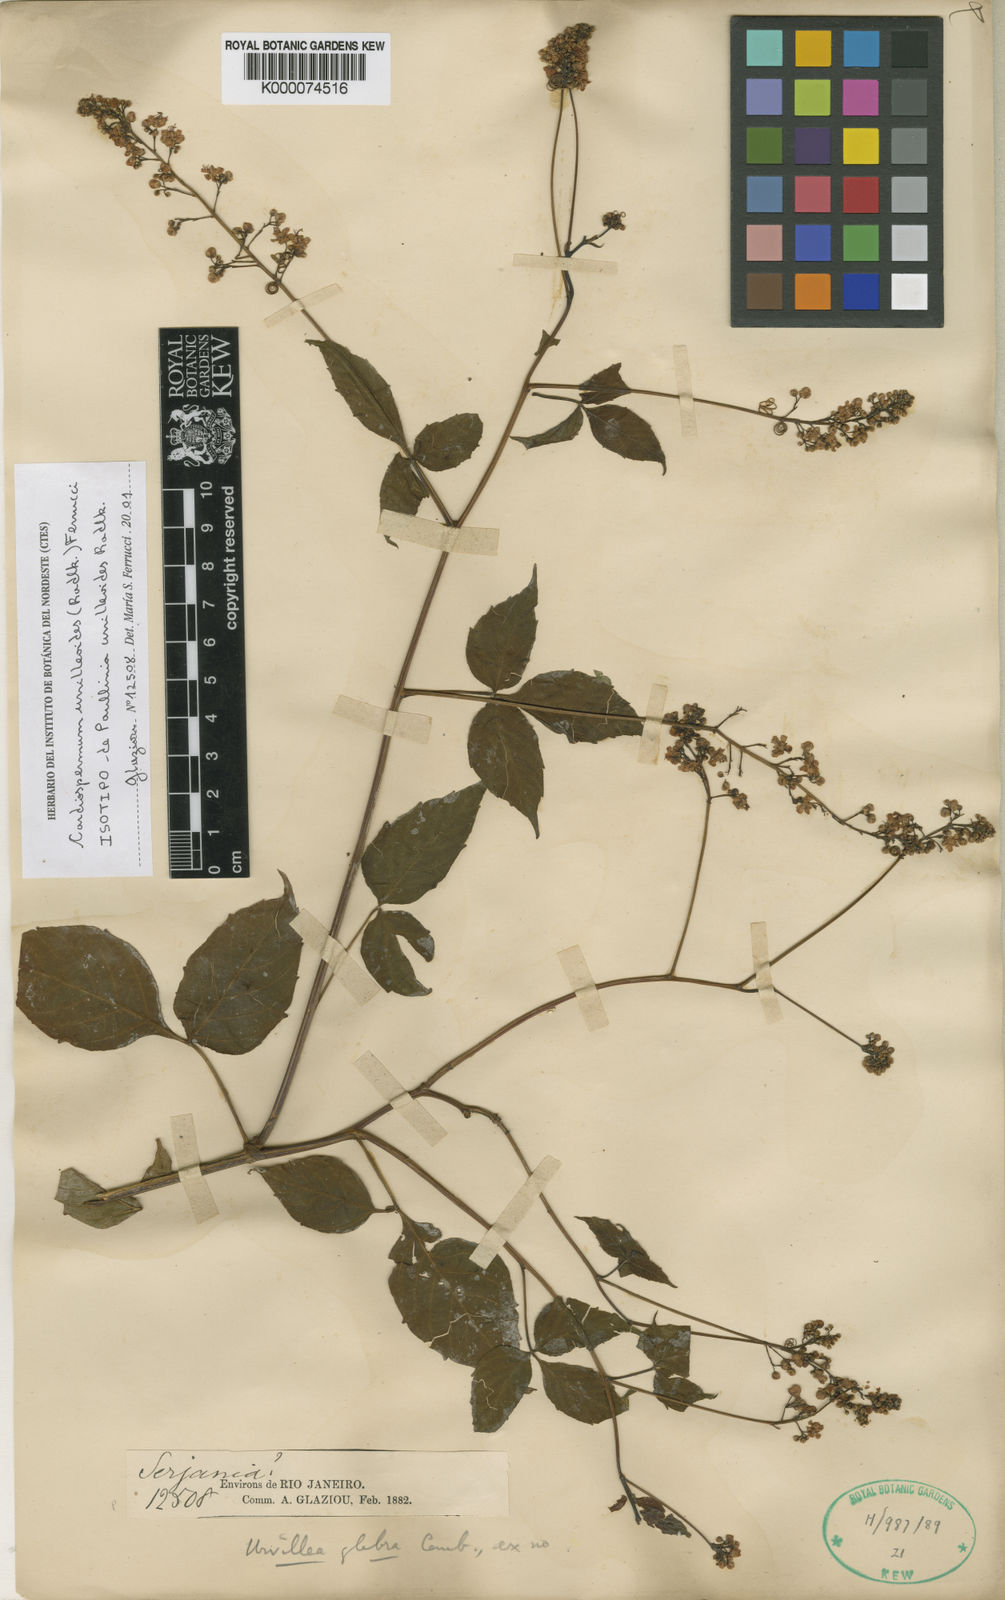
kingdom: Plantae
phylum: Tracheophyta
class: Magnoliopsida
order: Sapindales
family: Sapindaceae
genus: Serjania
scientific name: Serjania urvilleoides
